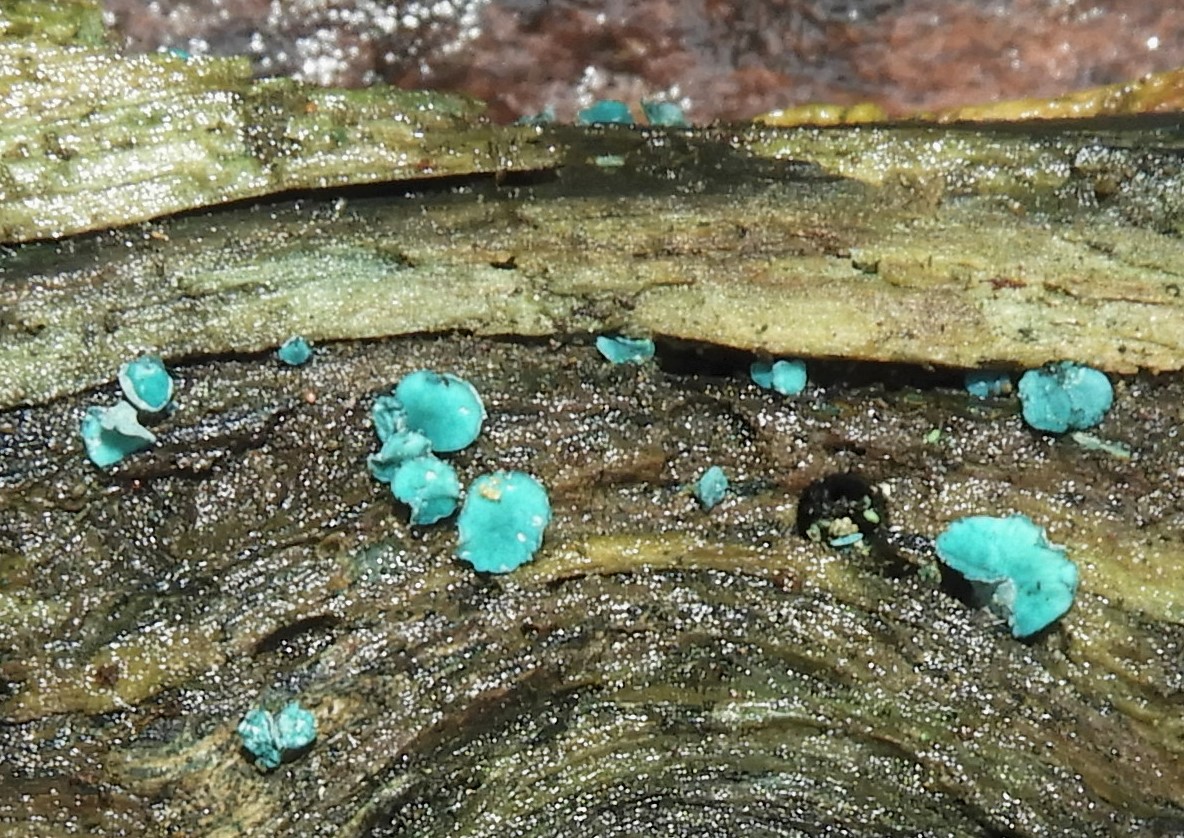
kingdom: Fungi
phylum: Ascomycota
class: Leotiomycetes
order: Helotiales
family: Chlorociboriaceae
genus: Chlorociboria
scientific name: Chlorociboria aeruginascens
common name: almindelig grønskive
